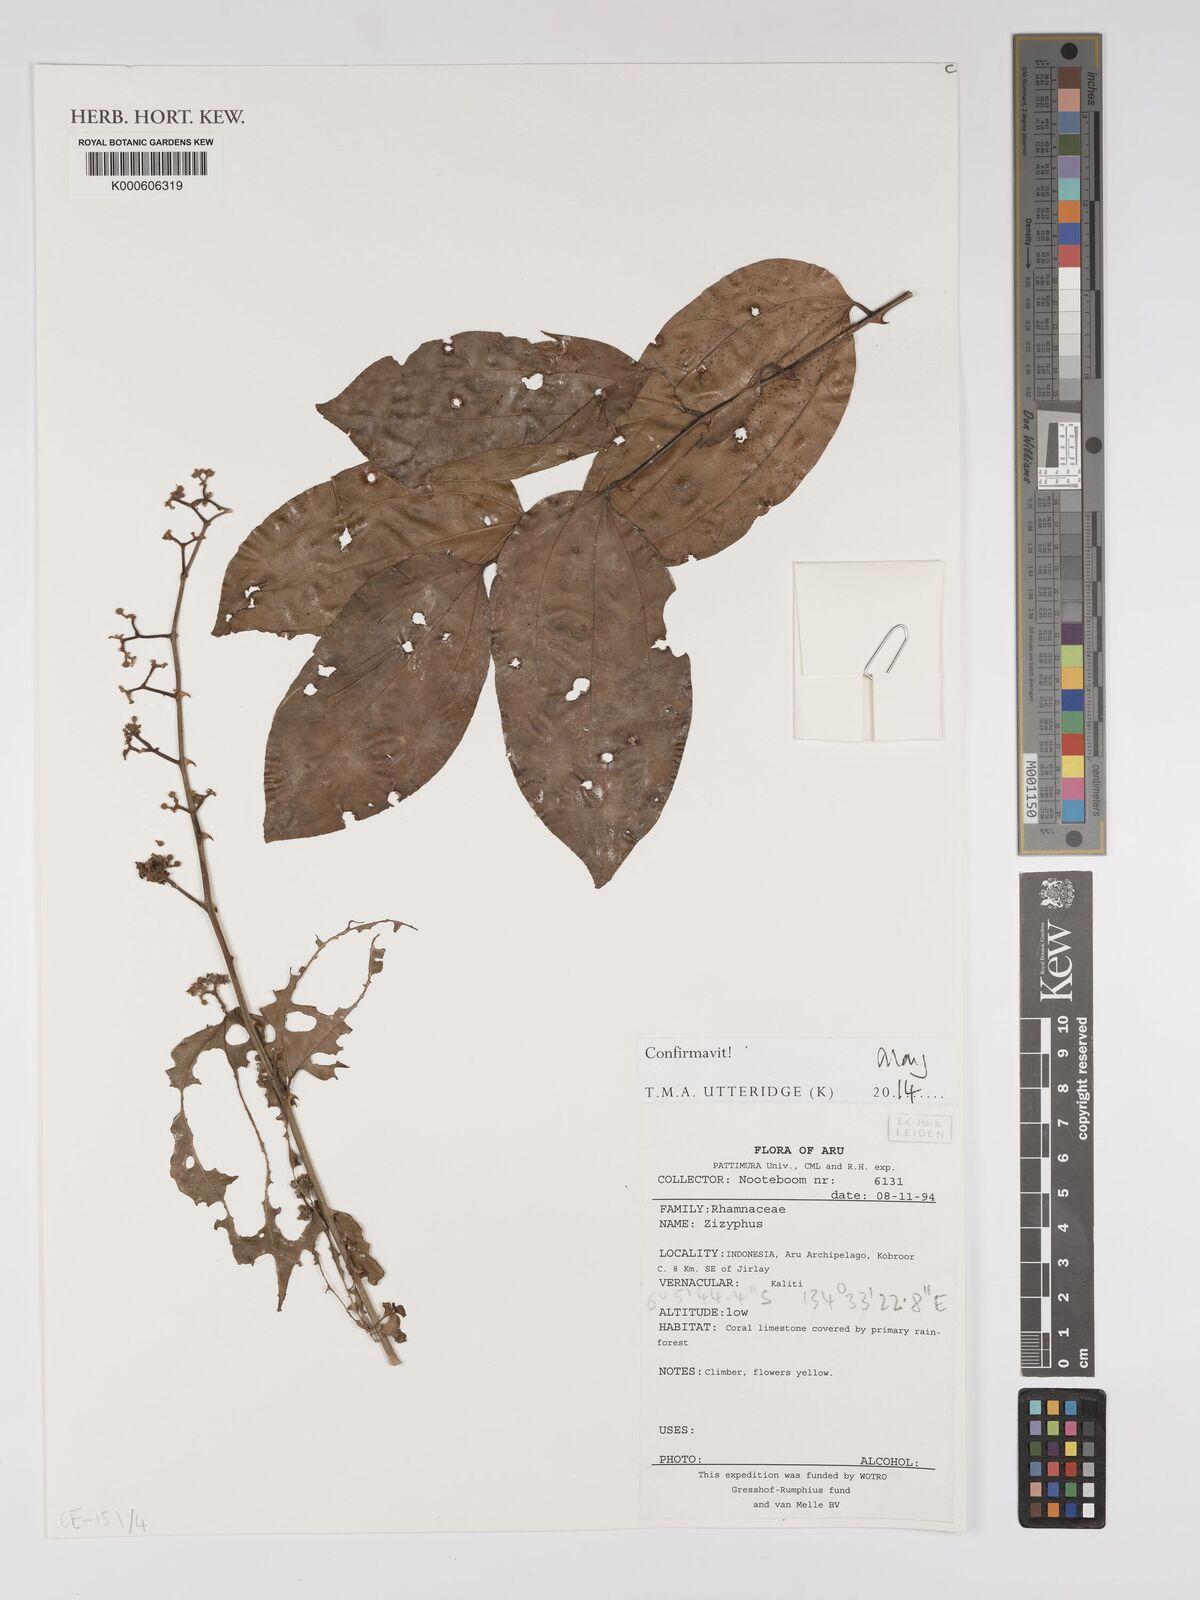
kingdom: Plantae
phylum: Tracheophyta
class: Magnoliopsida
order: Rosales
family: Rhamnaceae
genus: Ziziphus
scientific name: Ziziphus
